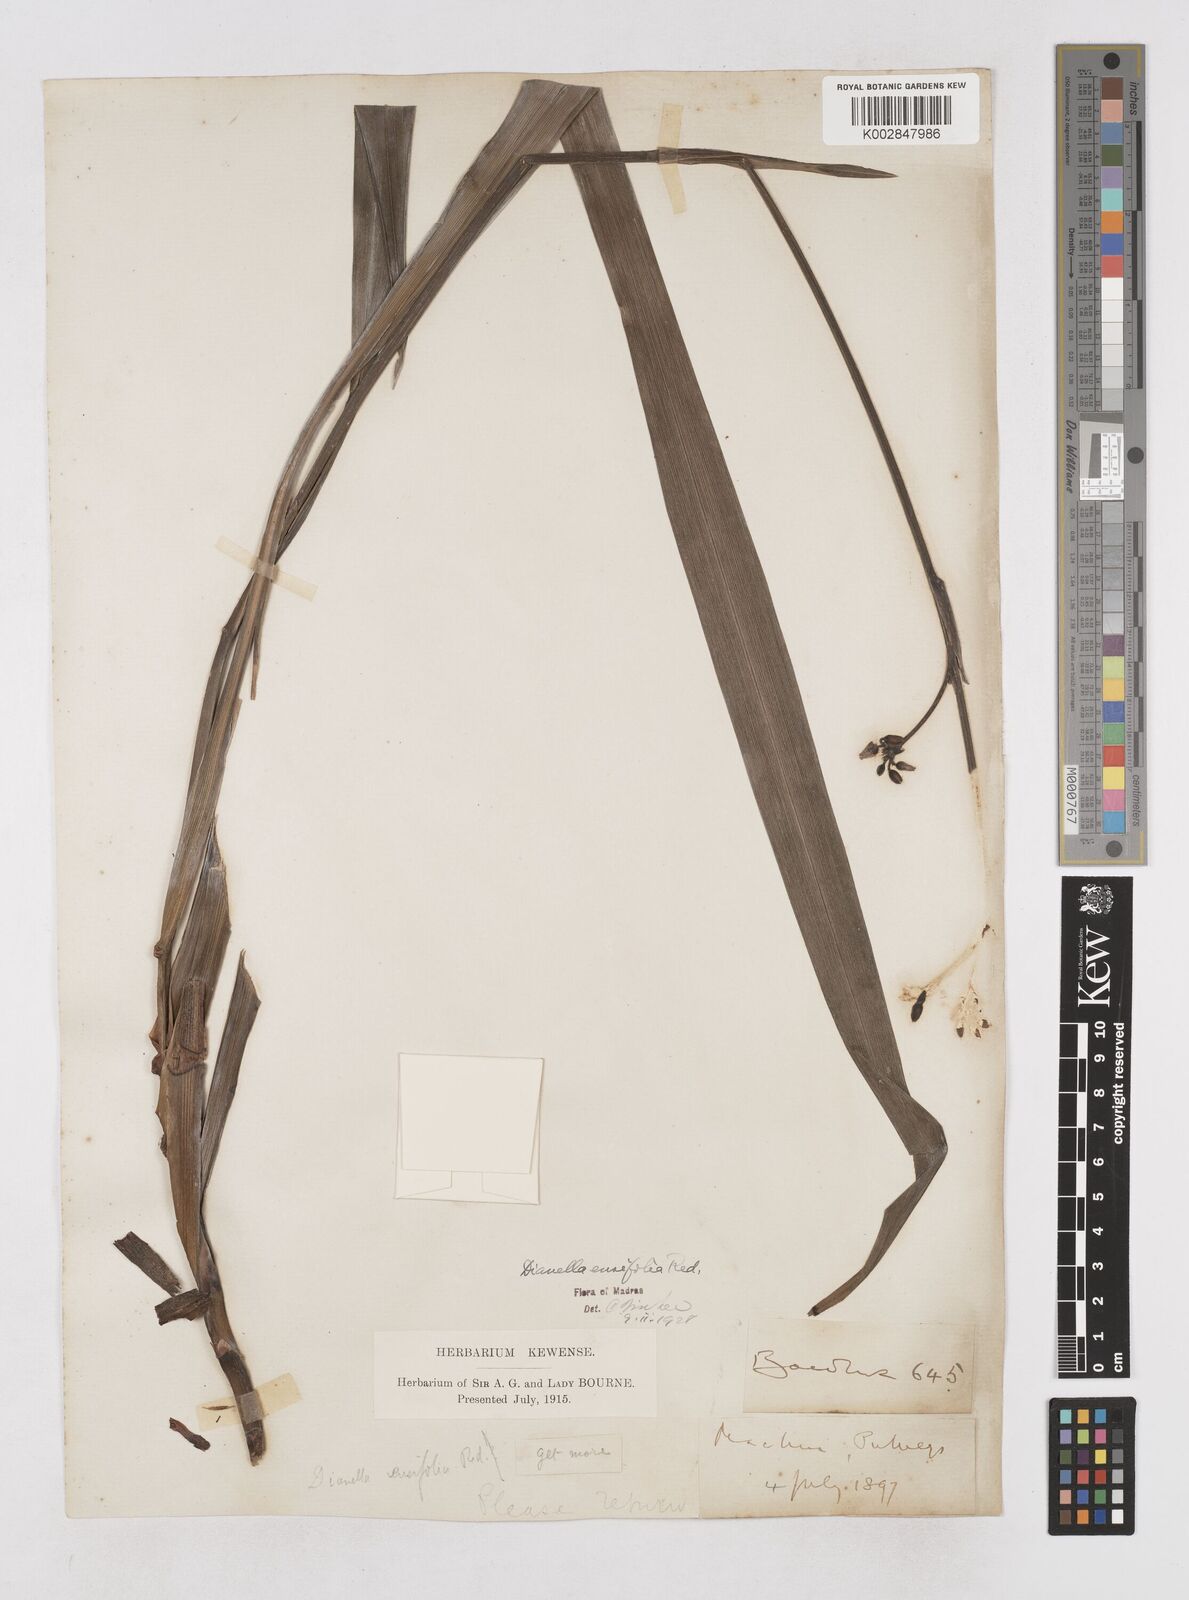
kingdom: Plantae
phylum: Tracheophyta
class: Liliopsida
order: Asparagales
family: Asphodelaceae
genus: Dianella
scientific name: Dianella ensifolia
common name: New zealand lilyplant
